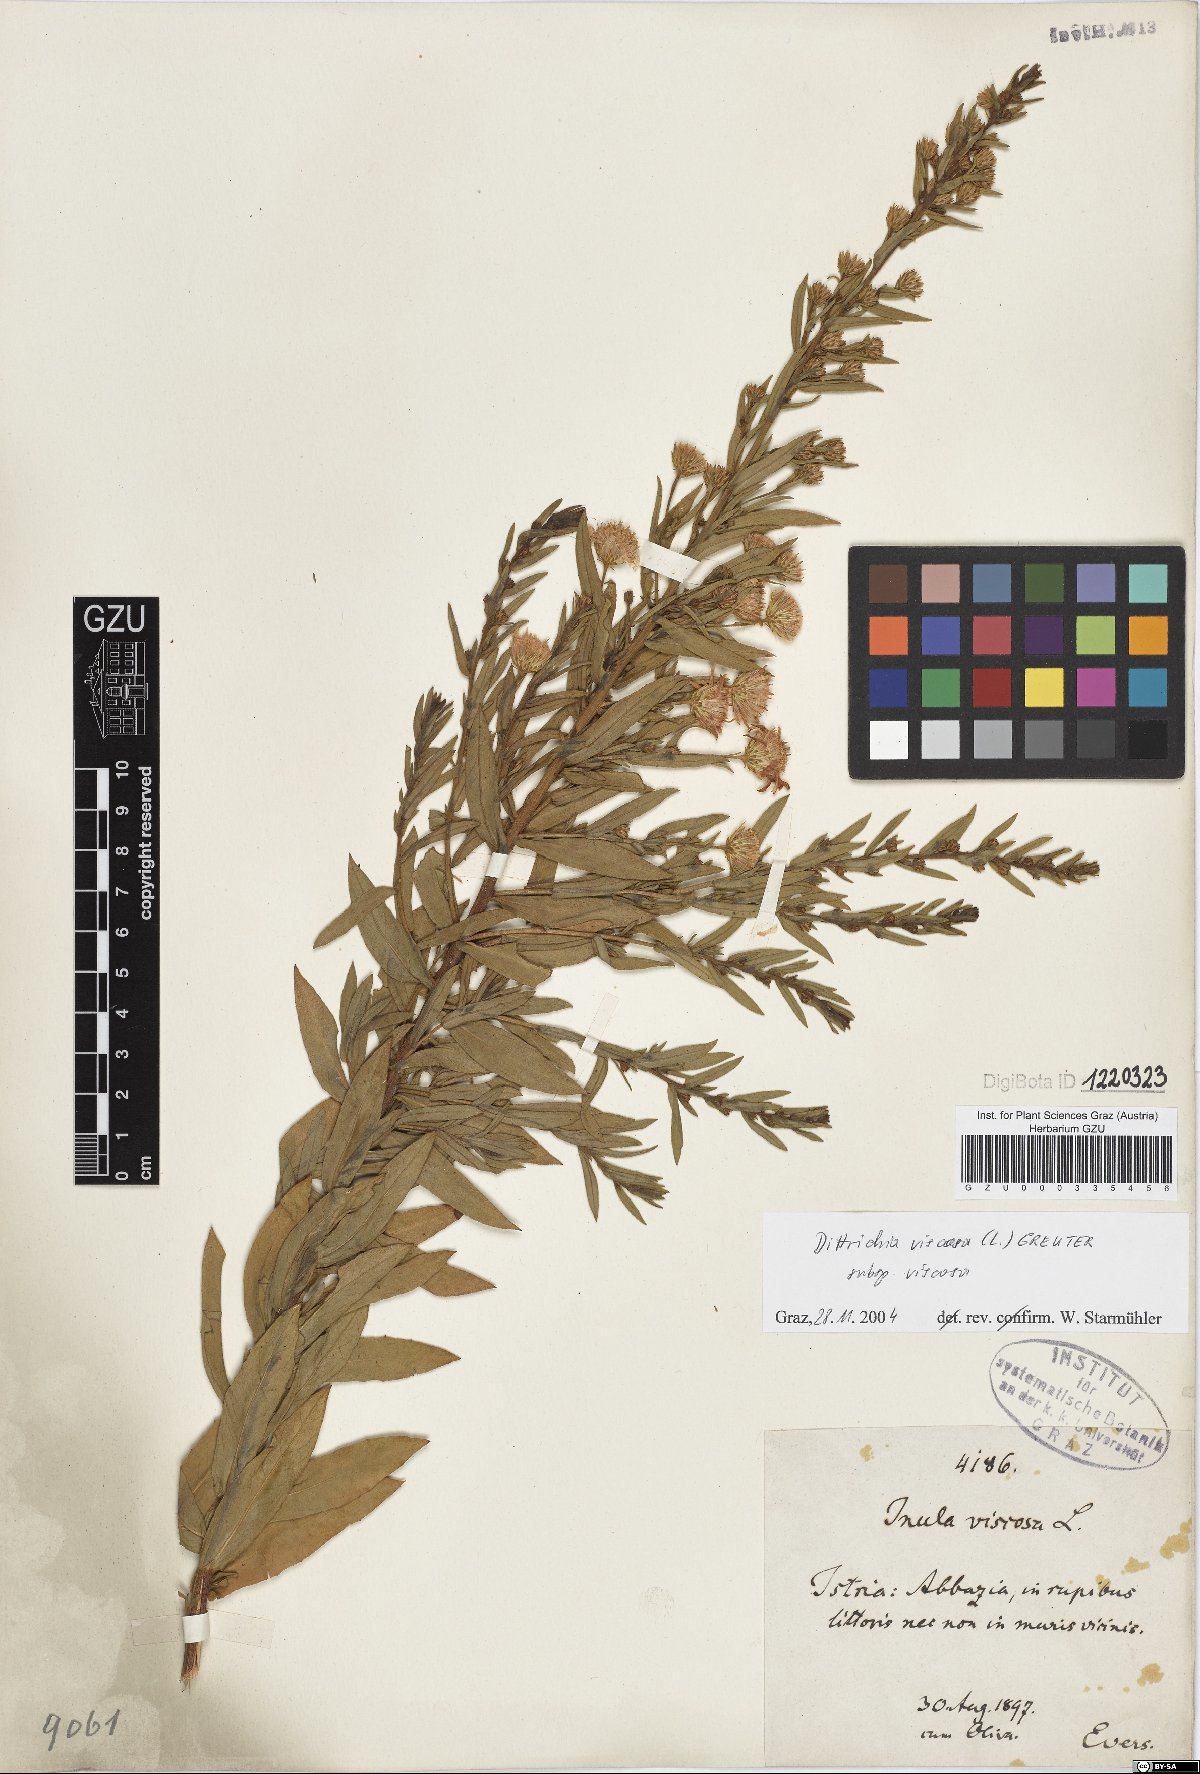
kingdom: Plantae
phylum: Tracheophyta
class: Magnoliopsida
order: Asterales
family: Asteraceae
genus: Dittrichia
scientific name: Dittrichia viscosa
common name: Woody fleabane
